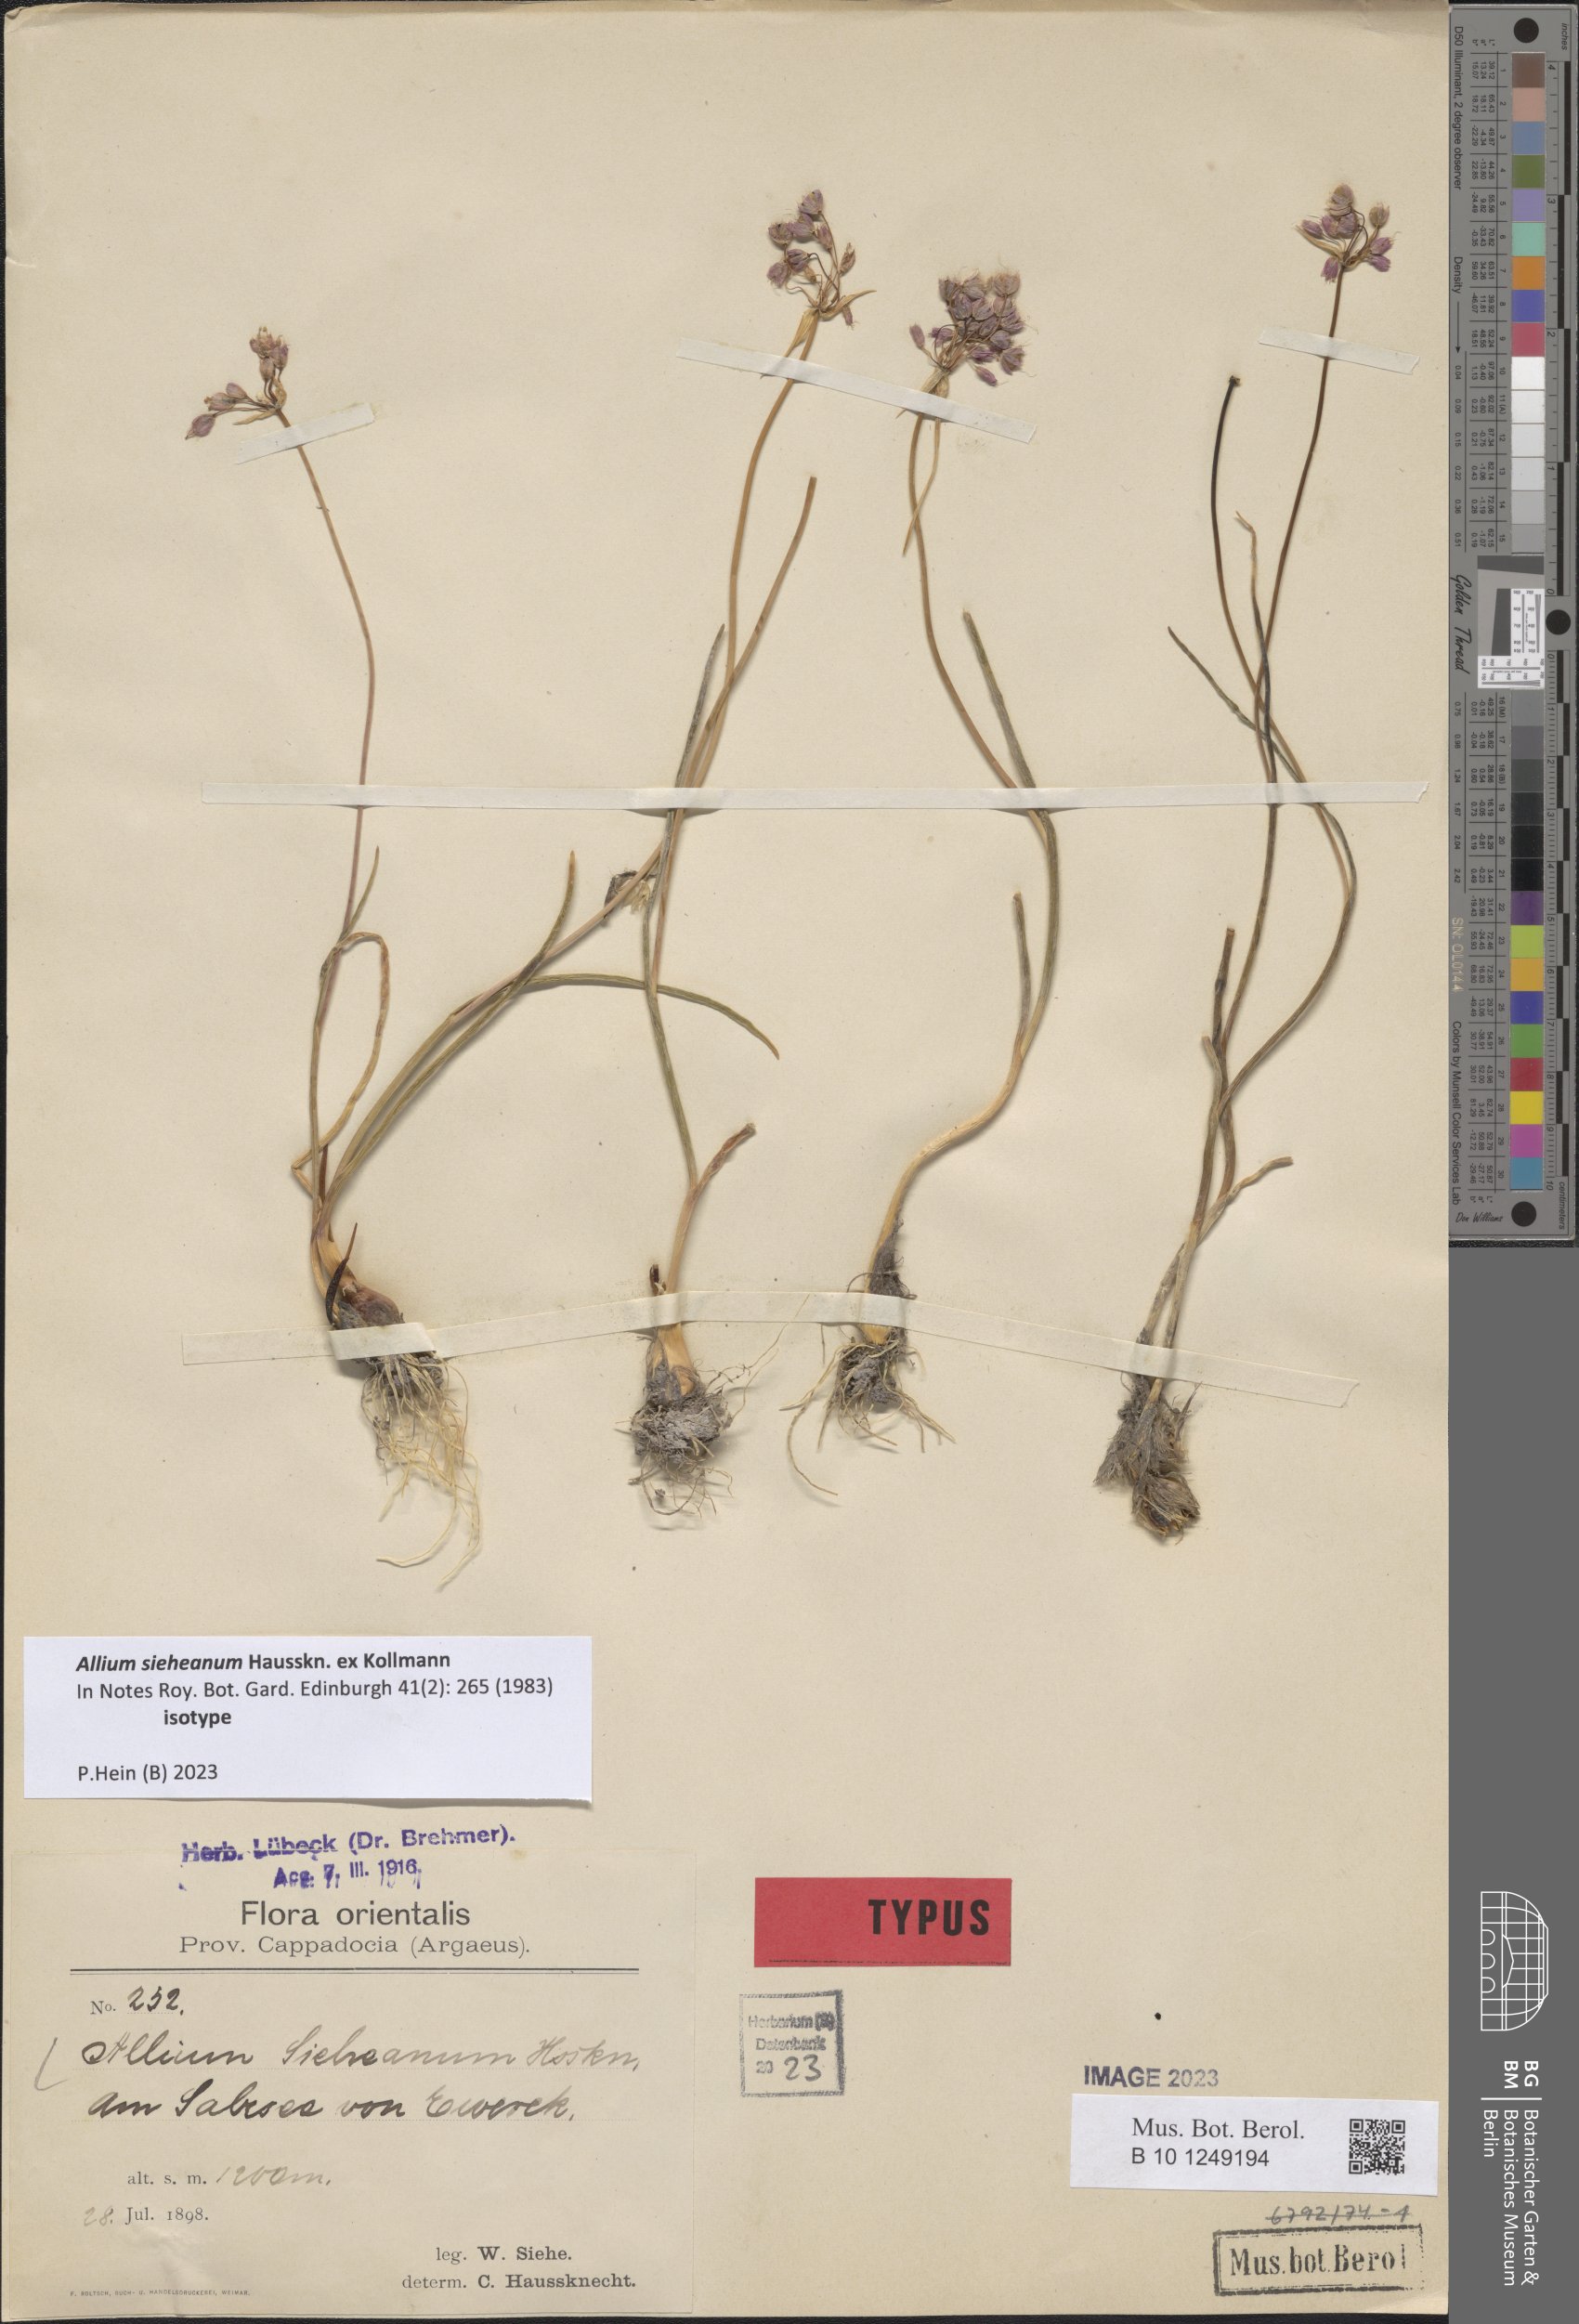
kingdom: Plantae
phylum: Tracheophyta
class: Liliopsida
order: Asparagales
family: Amaryllidaceae
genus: Allium
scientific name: Allium sieheanum
